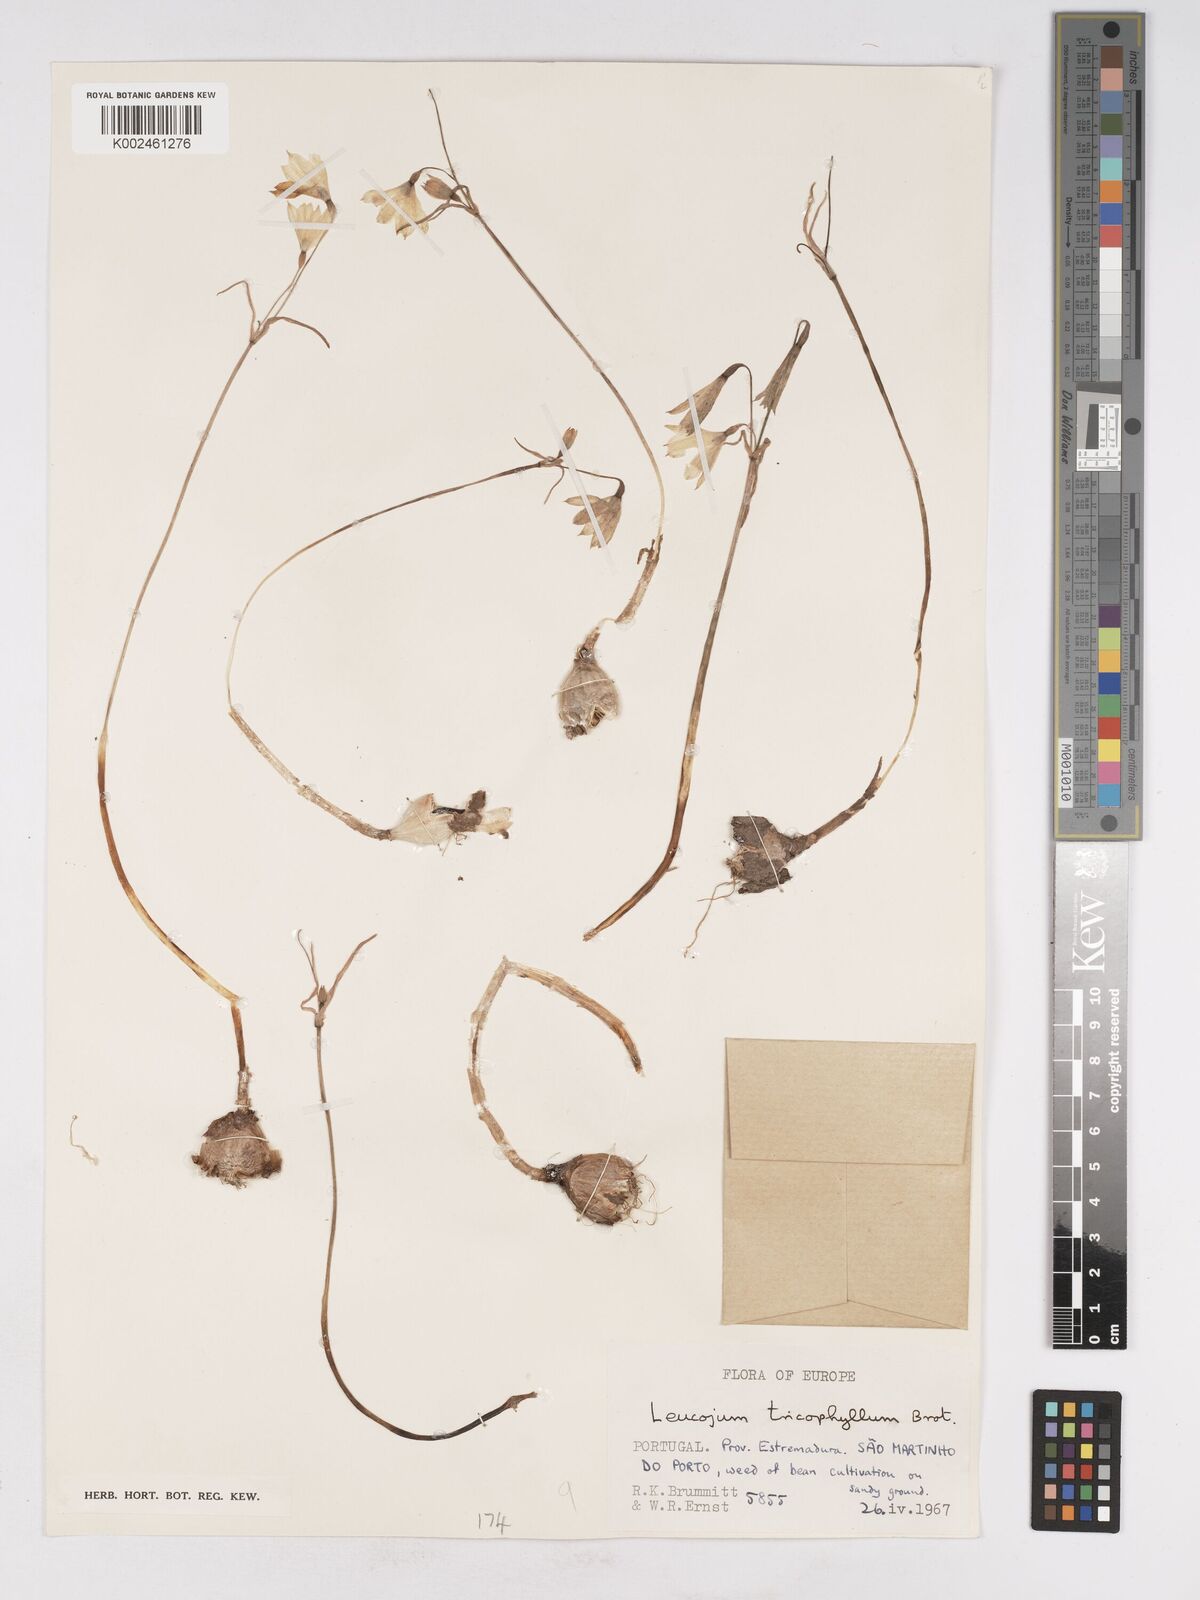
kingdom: Plantae
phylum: Tracheophyta
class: Liliopsida
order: Asparagales
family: Amaryllidaceae
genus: Acis
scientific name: Acis trichophylla
